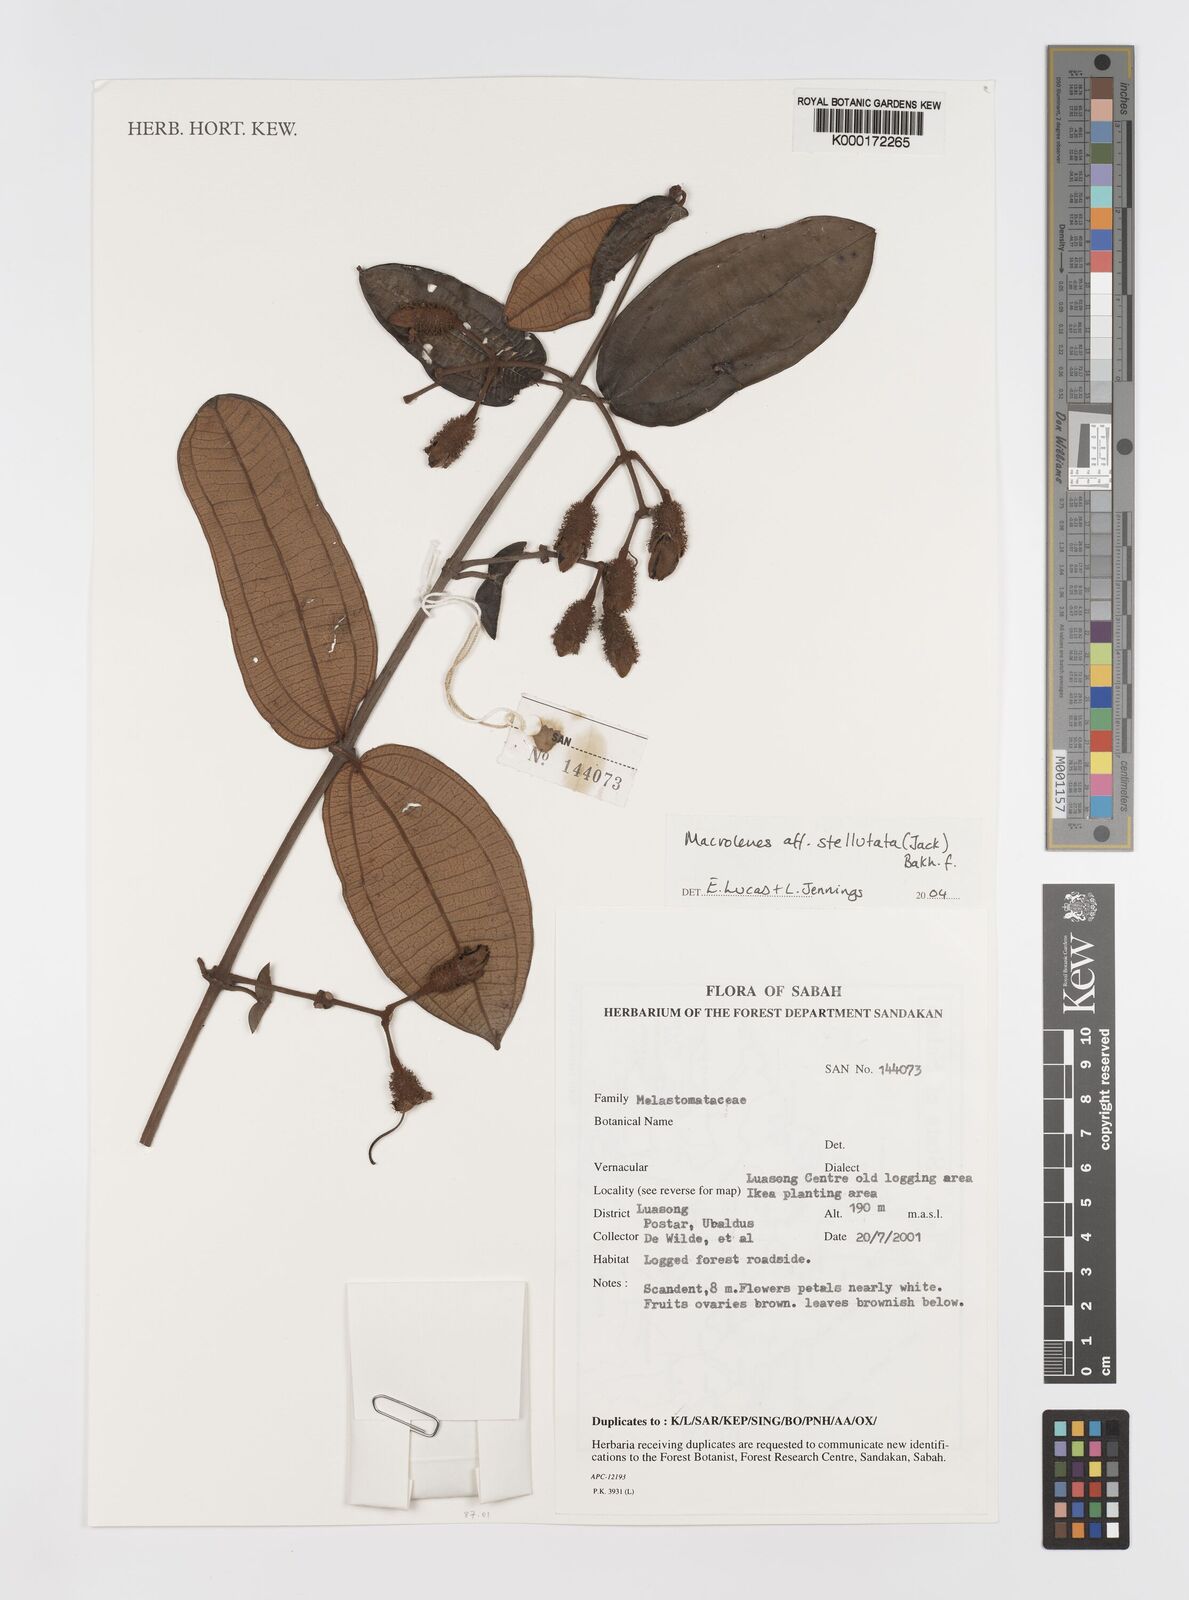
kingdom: Plantae
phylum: Tracheophyta
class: Magnoliopsida
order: Myrtales
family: Melastomataceae
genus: Macrolenes
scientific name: Macrolenes
